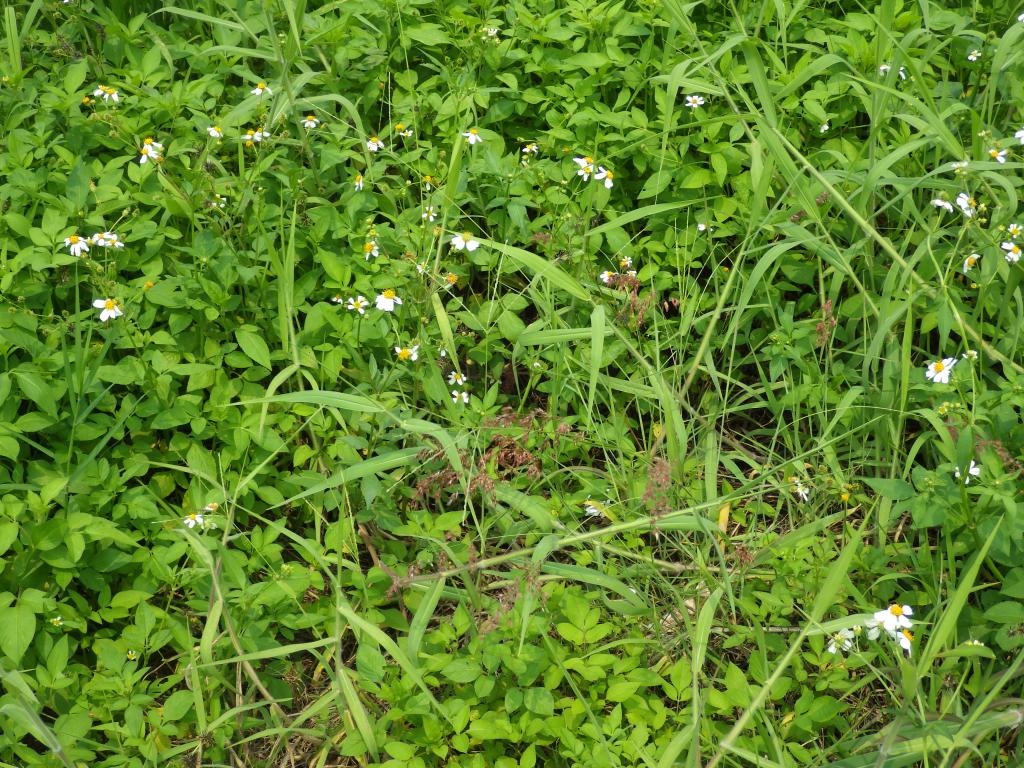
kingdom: Plantae
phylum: Tracheophyta
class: Liliopsida
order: Poales
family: Poaceae
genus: Melinis
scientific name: Melinis repens
